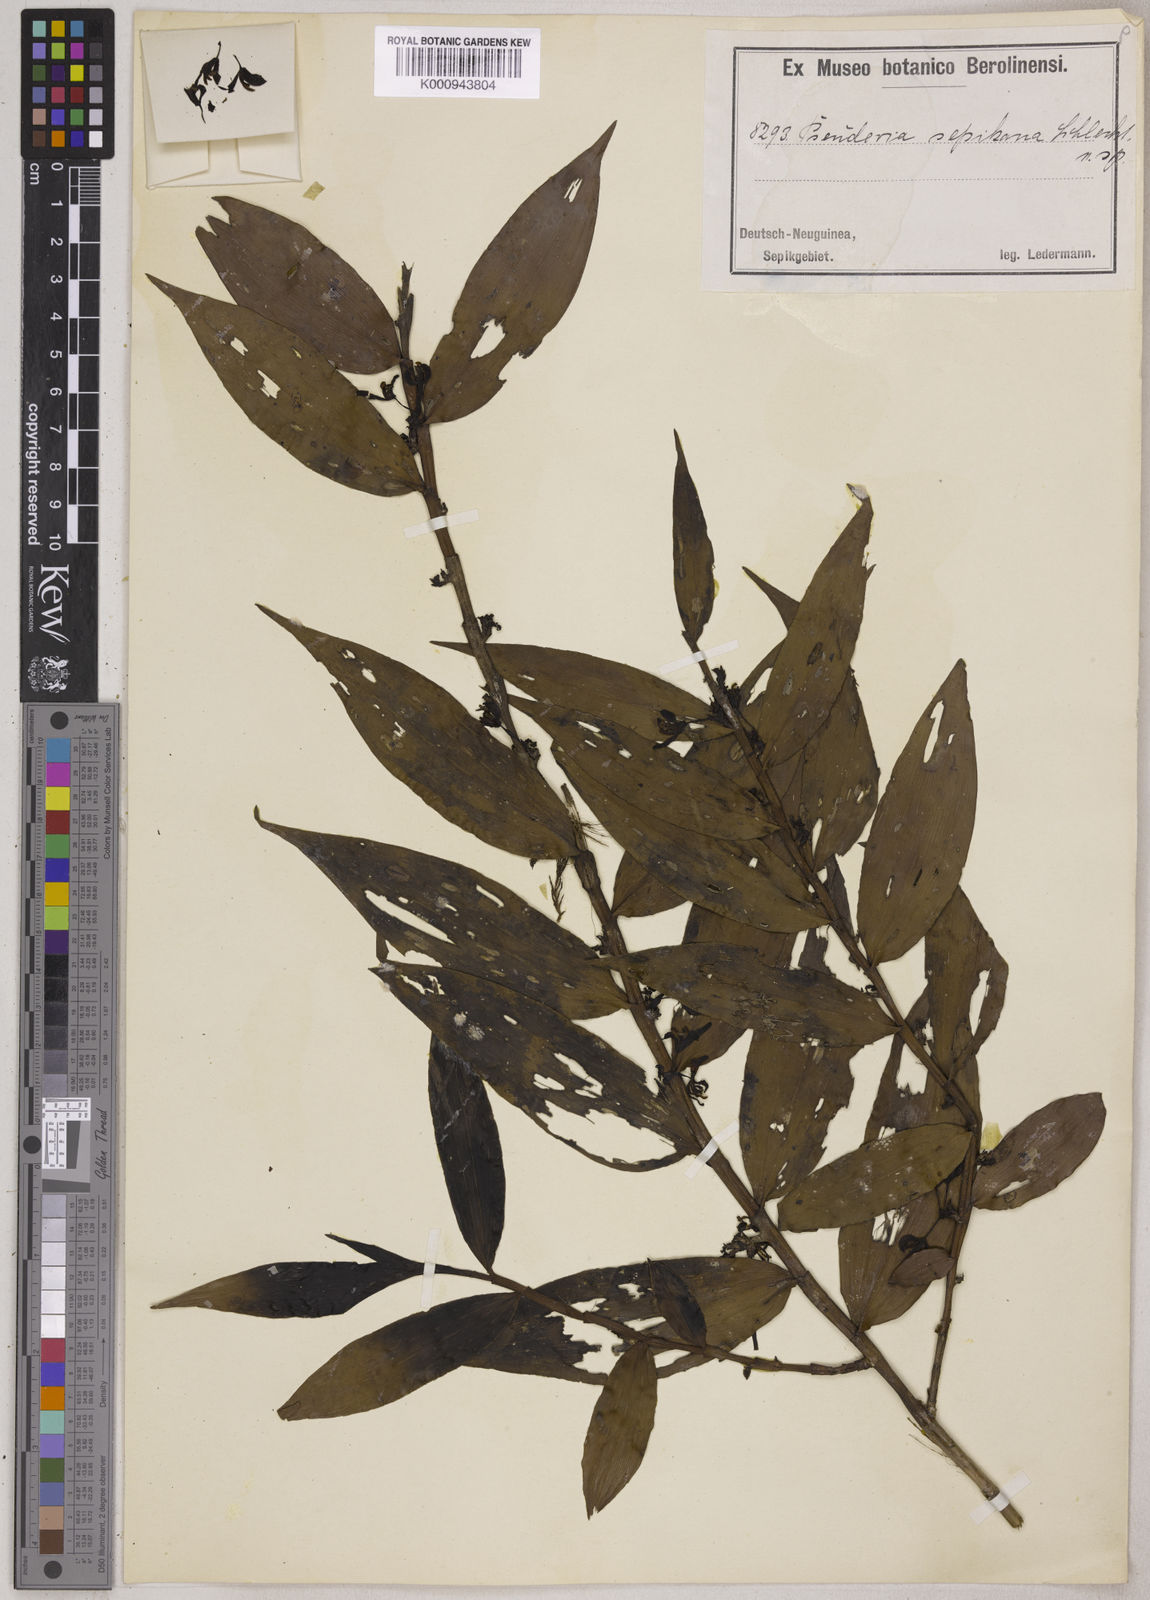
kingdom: Plantae
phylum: Tracheophyta
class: Liliopsida
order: Asparagales
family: Orchidaceae
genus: Pseuderia
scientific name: Pseuderia sepikana
